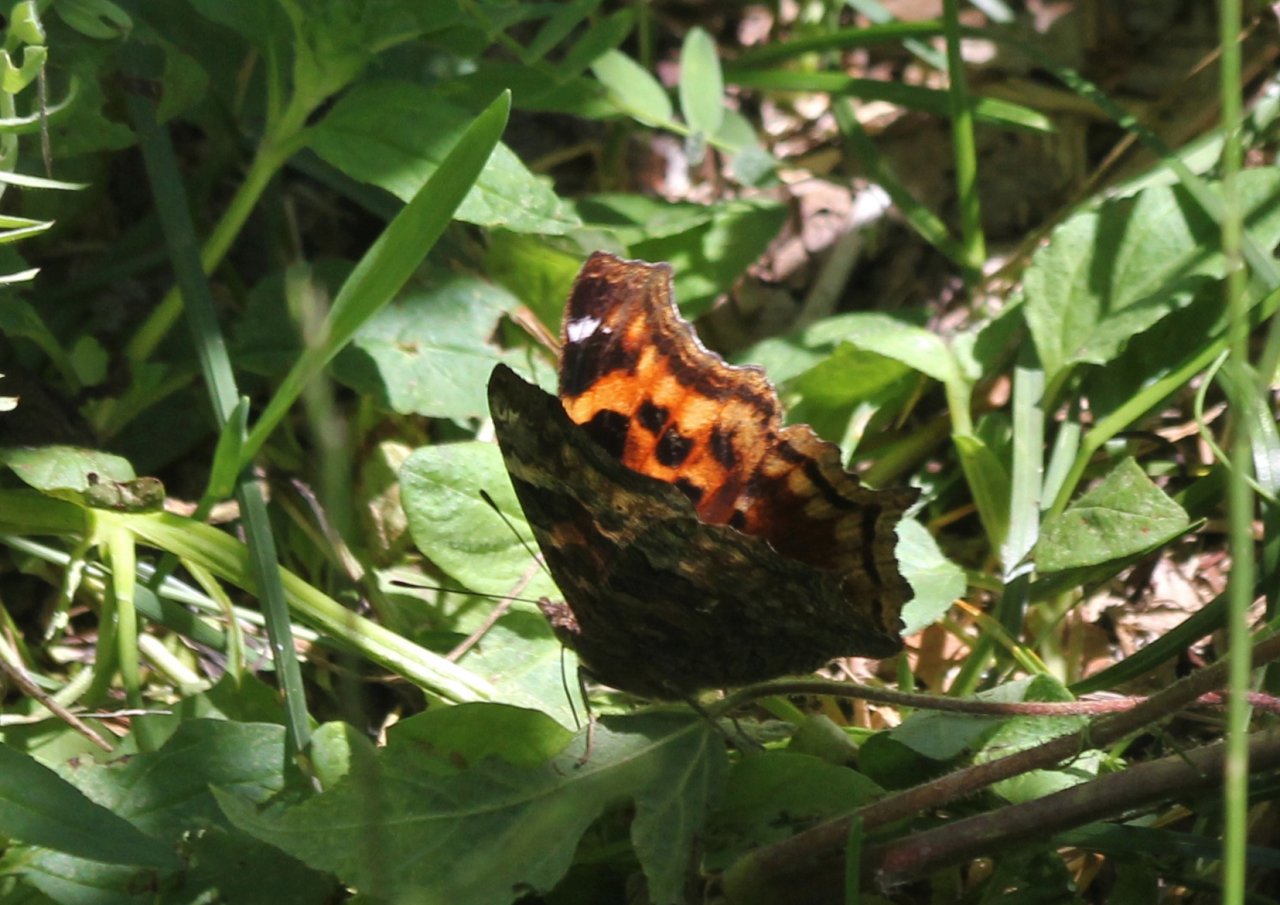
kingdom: Animalia
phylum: Arthropoda
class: Insecta
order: Lepidoptera
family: Nymphalidae
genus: Polygonia
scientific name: Polygonia vaualbum
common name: Compton Tortoiseshell
